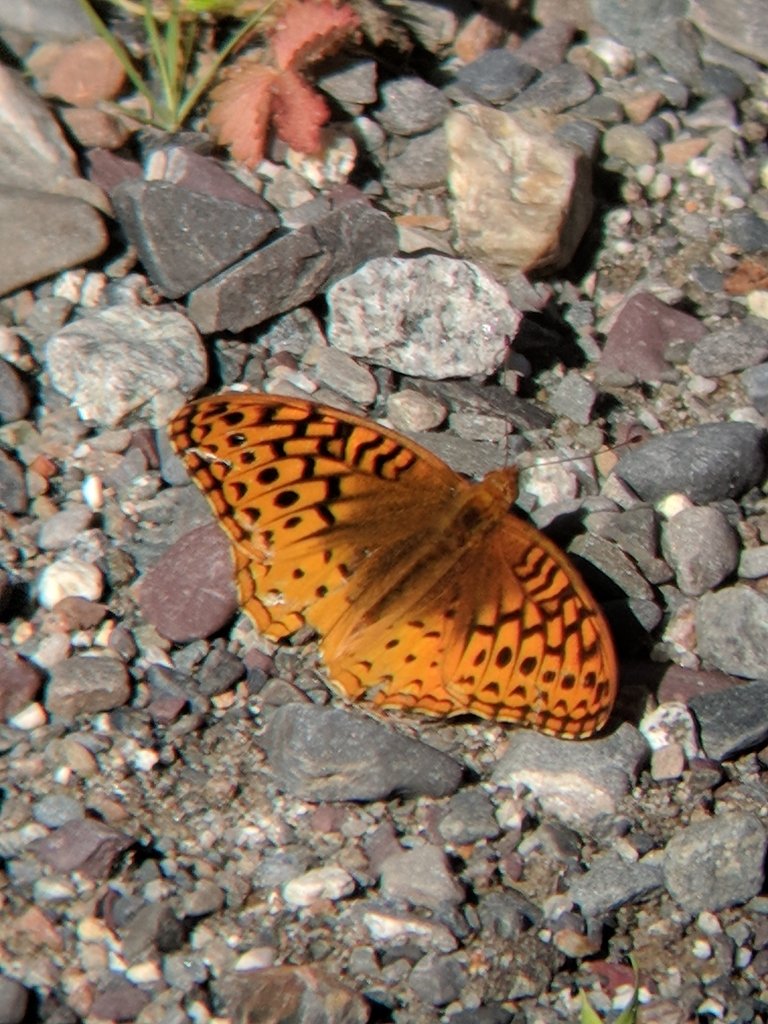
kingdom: Animalia
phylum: Arthropoda
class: Insecta
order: Lepidoptera
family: Nymphalidae
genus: Speyeria
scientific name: Speyeria cybele
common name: Great Spangled Fritillary
